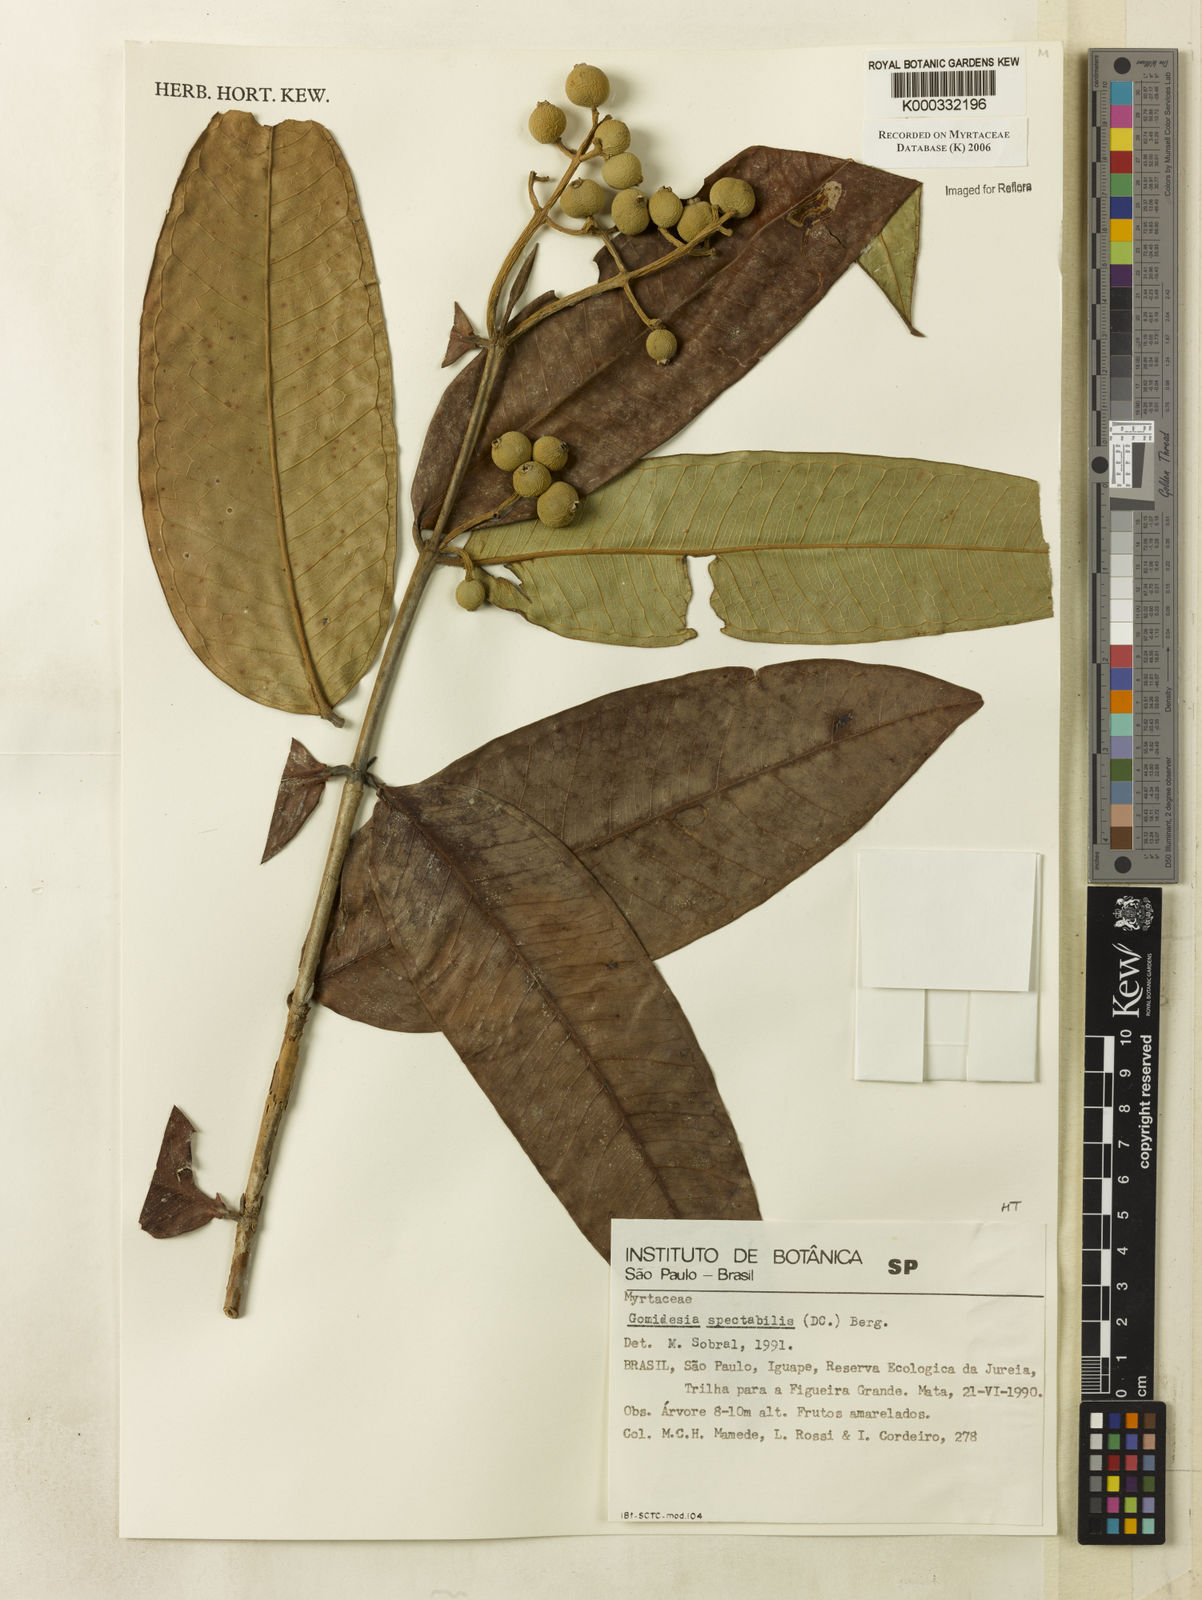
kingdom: Plantae
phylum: Tracheophyta
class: Magnoliopsida
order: Myrtales
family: Myrtaceae
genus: Myrcia
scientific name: Myrcia spectabilis
